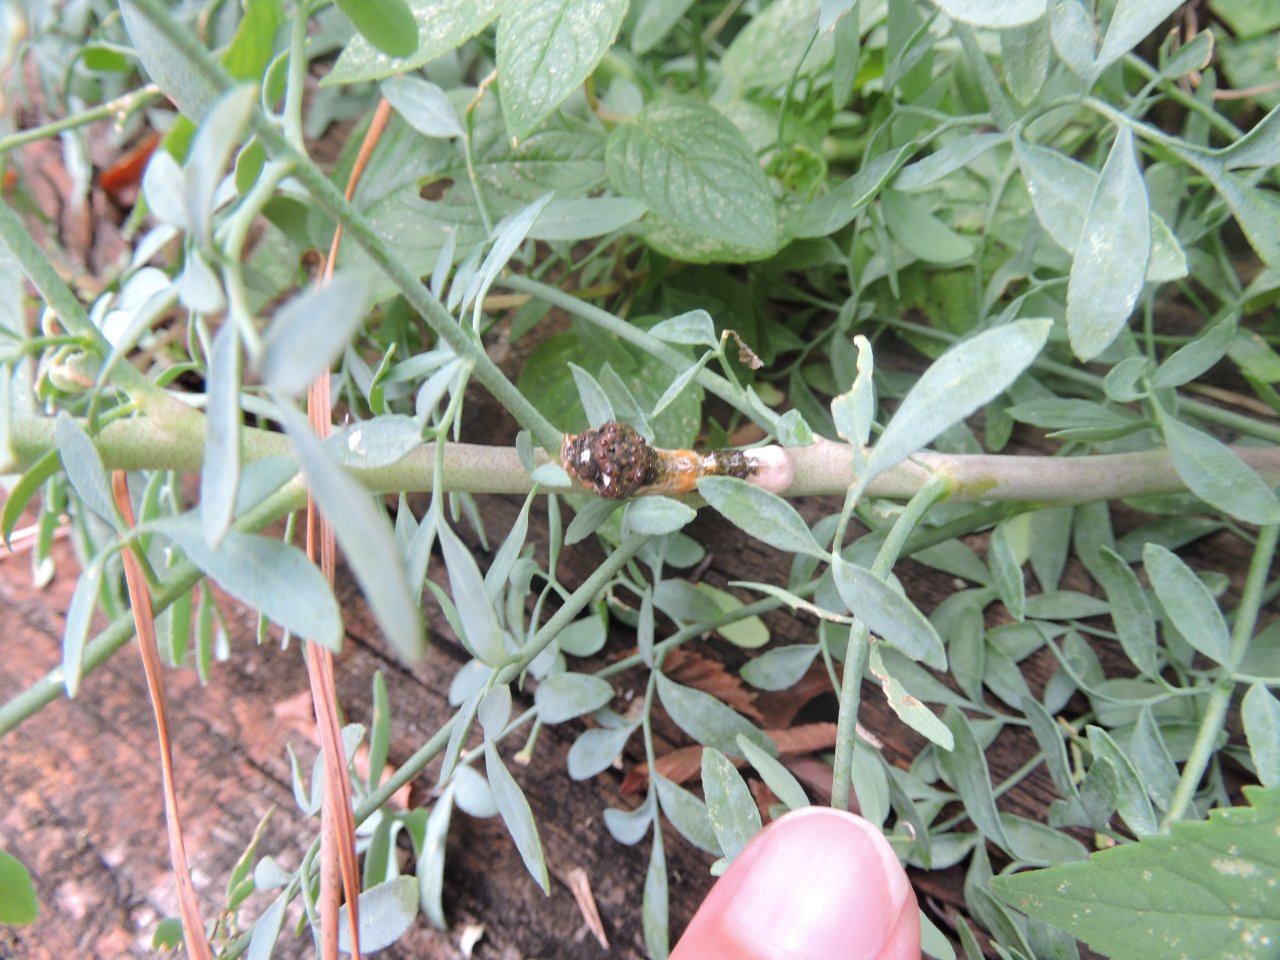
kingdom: Animalia
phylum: Arthropoda
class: Insecta
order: Lepidoptera
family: Papilionidae
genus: Papilio
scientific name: Papilio cresphontes
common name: Eastern Giant Swallowtail
